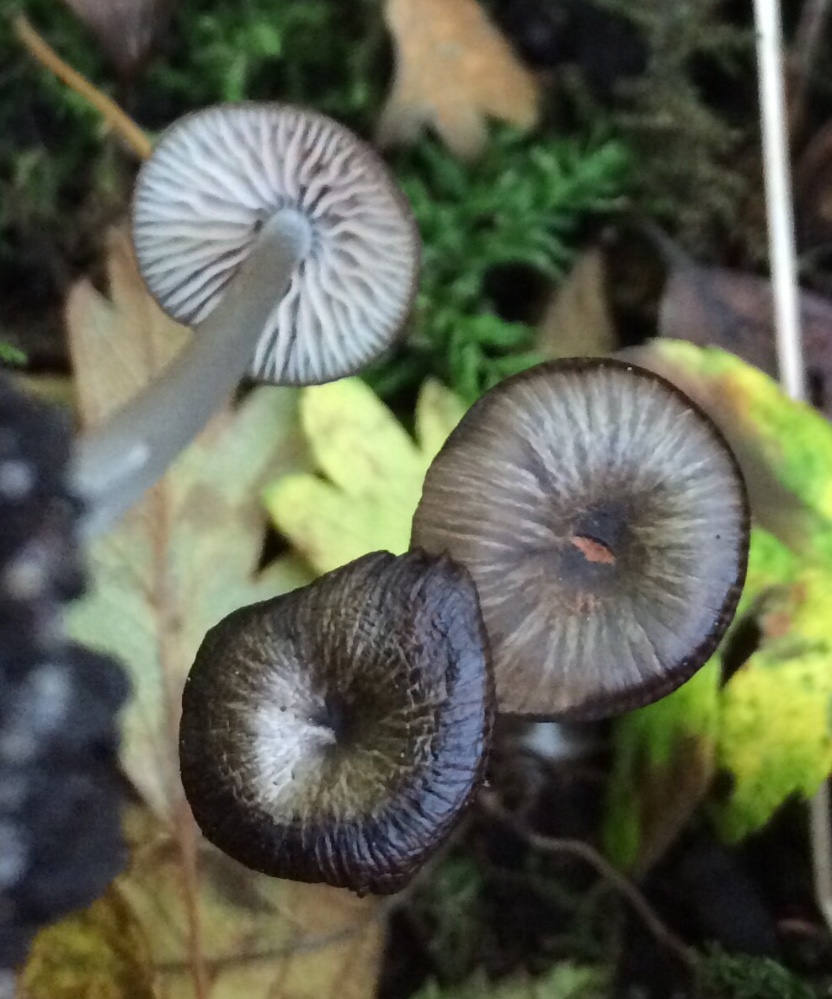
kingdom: Fungi
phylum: Basidiomycota
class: Agaricomycetes
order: Agaricales
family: Entolomataceae
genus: Entoloma
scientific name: Entoloma
